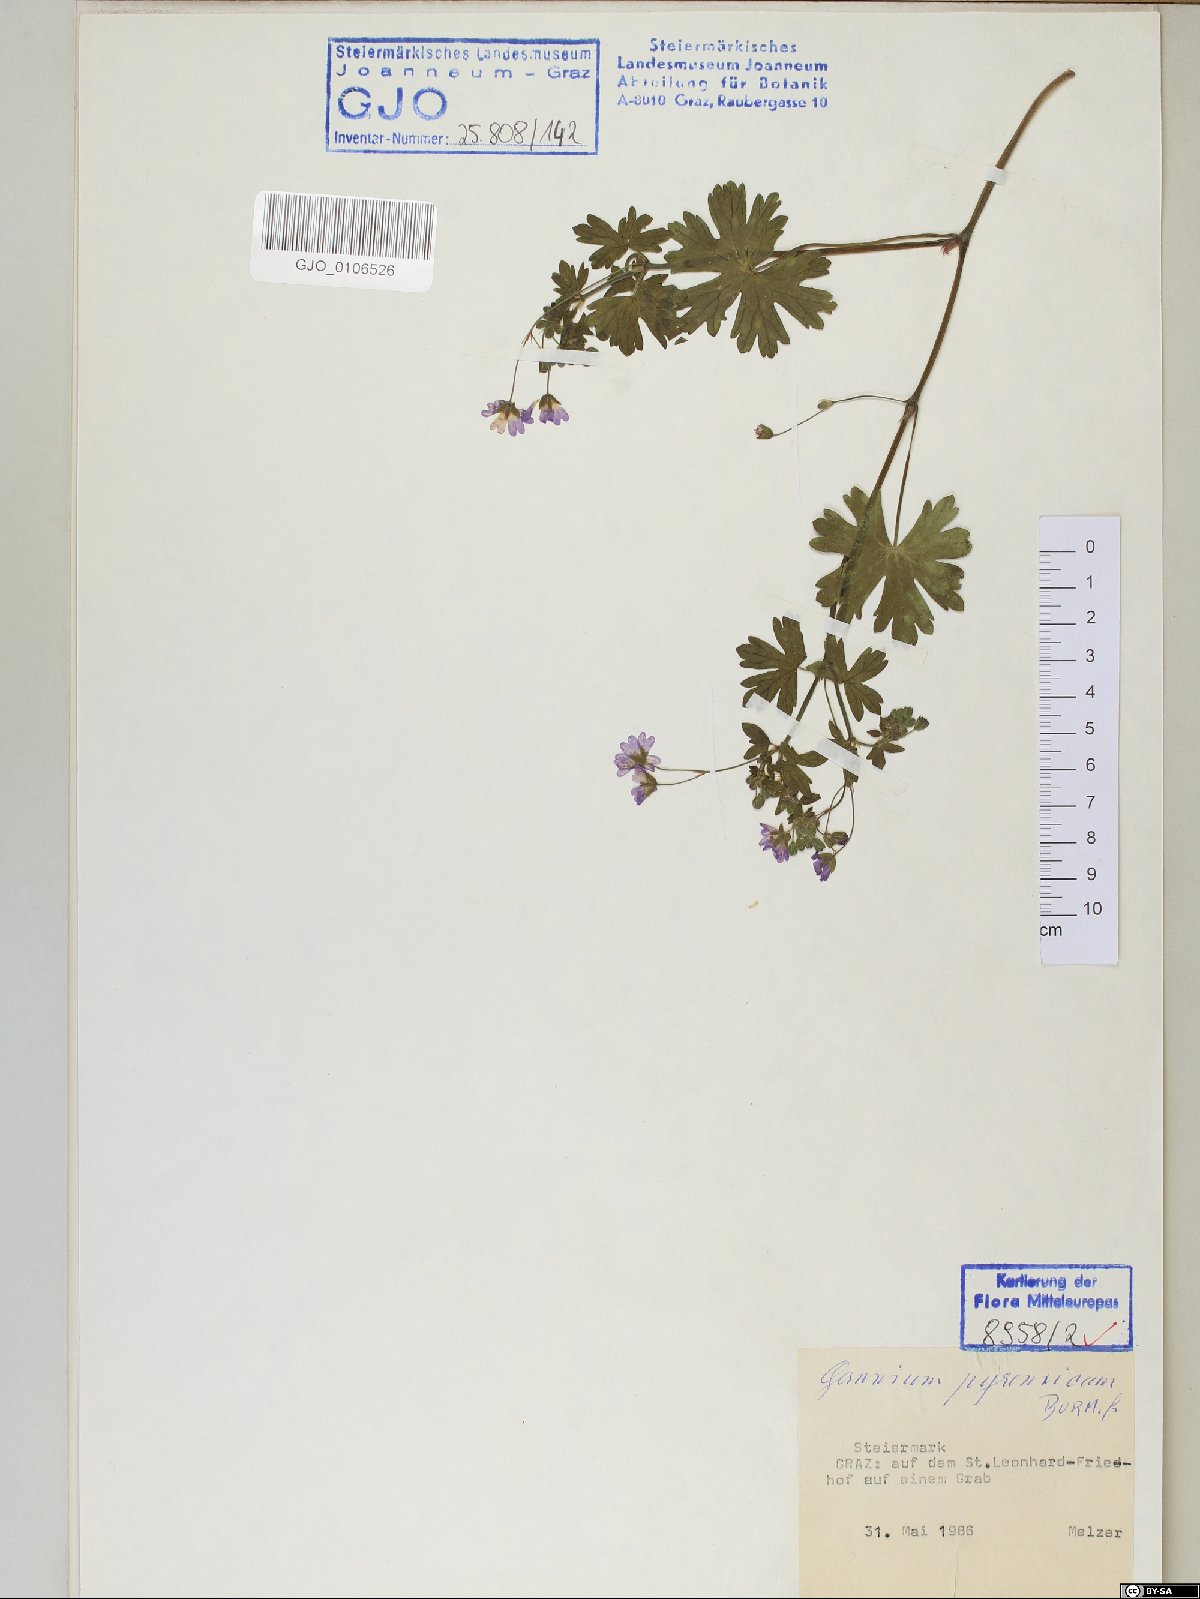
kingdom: Plantae
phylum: Tracheophyta
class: Magnoliopsida
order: Geraniales
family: Geraniaceae
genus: Geranium
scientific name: Geranium pyrenaicum
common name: Hedgerow crane's-bill
